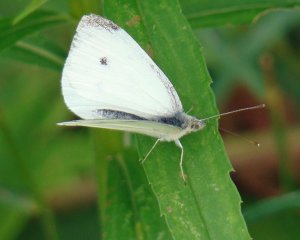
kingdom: Animalia
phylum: Arthropoda
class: Insecta
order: Lepidoptera
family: Pieridae
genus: Pieris
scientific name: Pieris rapae
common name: Cabbage White
